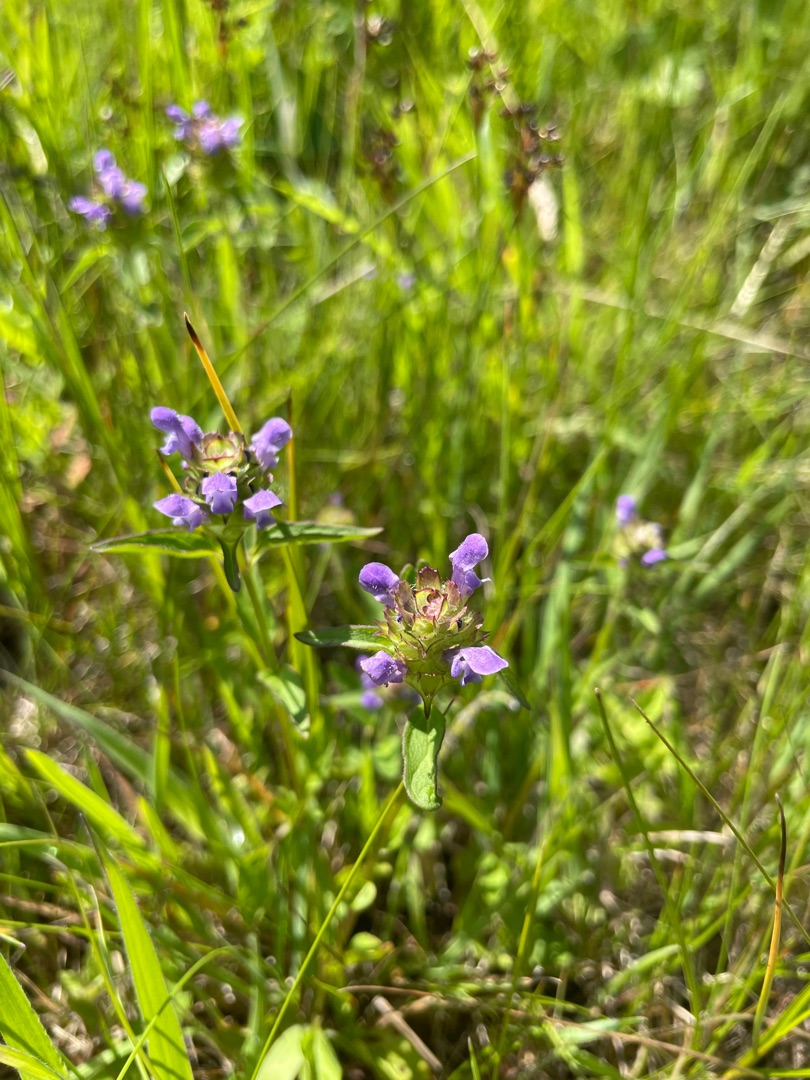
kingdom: Plantae
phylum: Tracheophyta
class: Magnoliopsida
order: Lamiales
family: Lamiaceae
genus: Prunella
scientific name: Prunella vulgaris
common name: Almindelig brunelle
